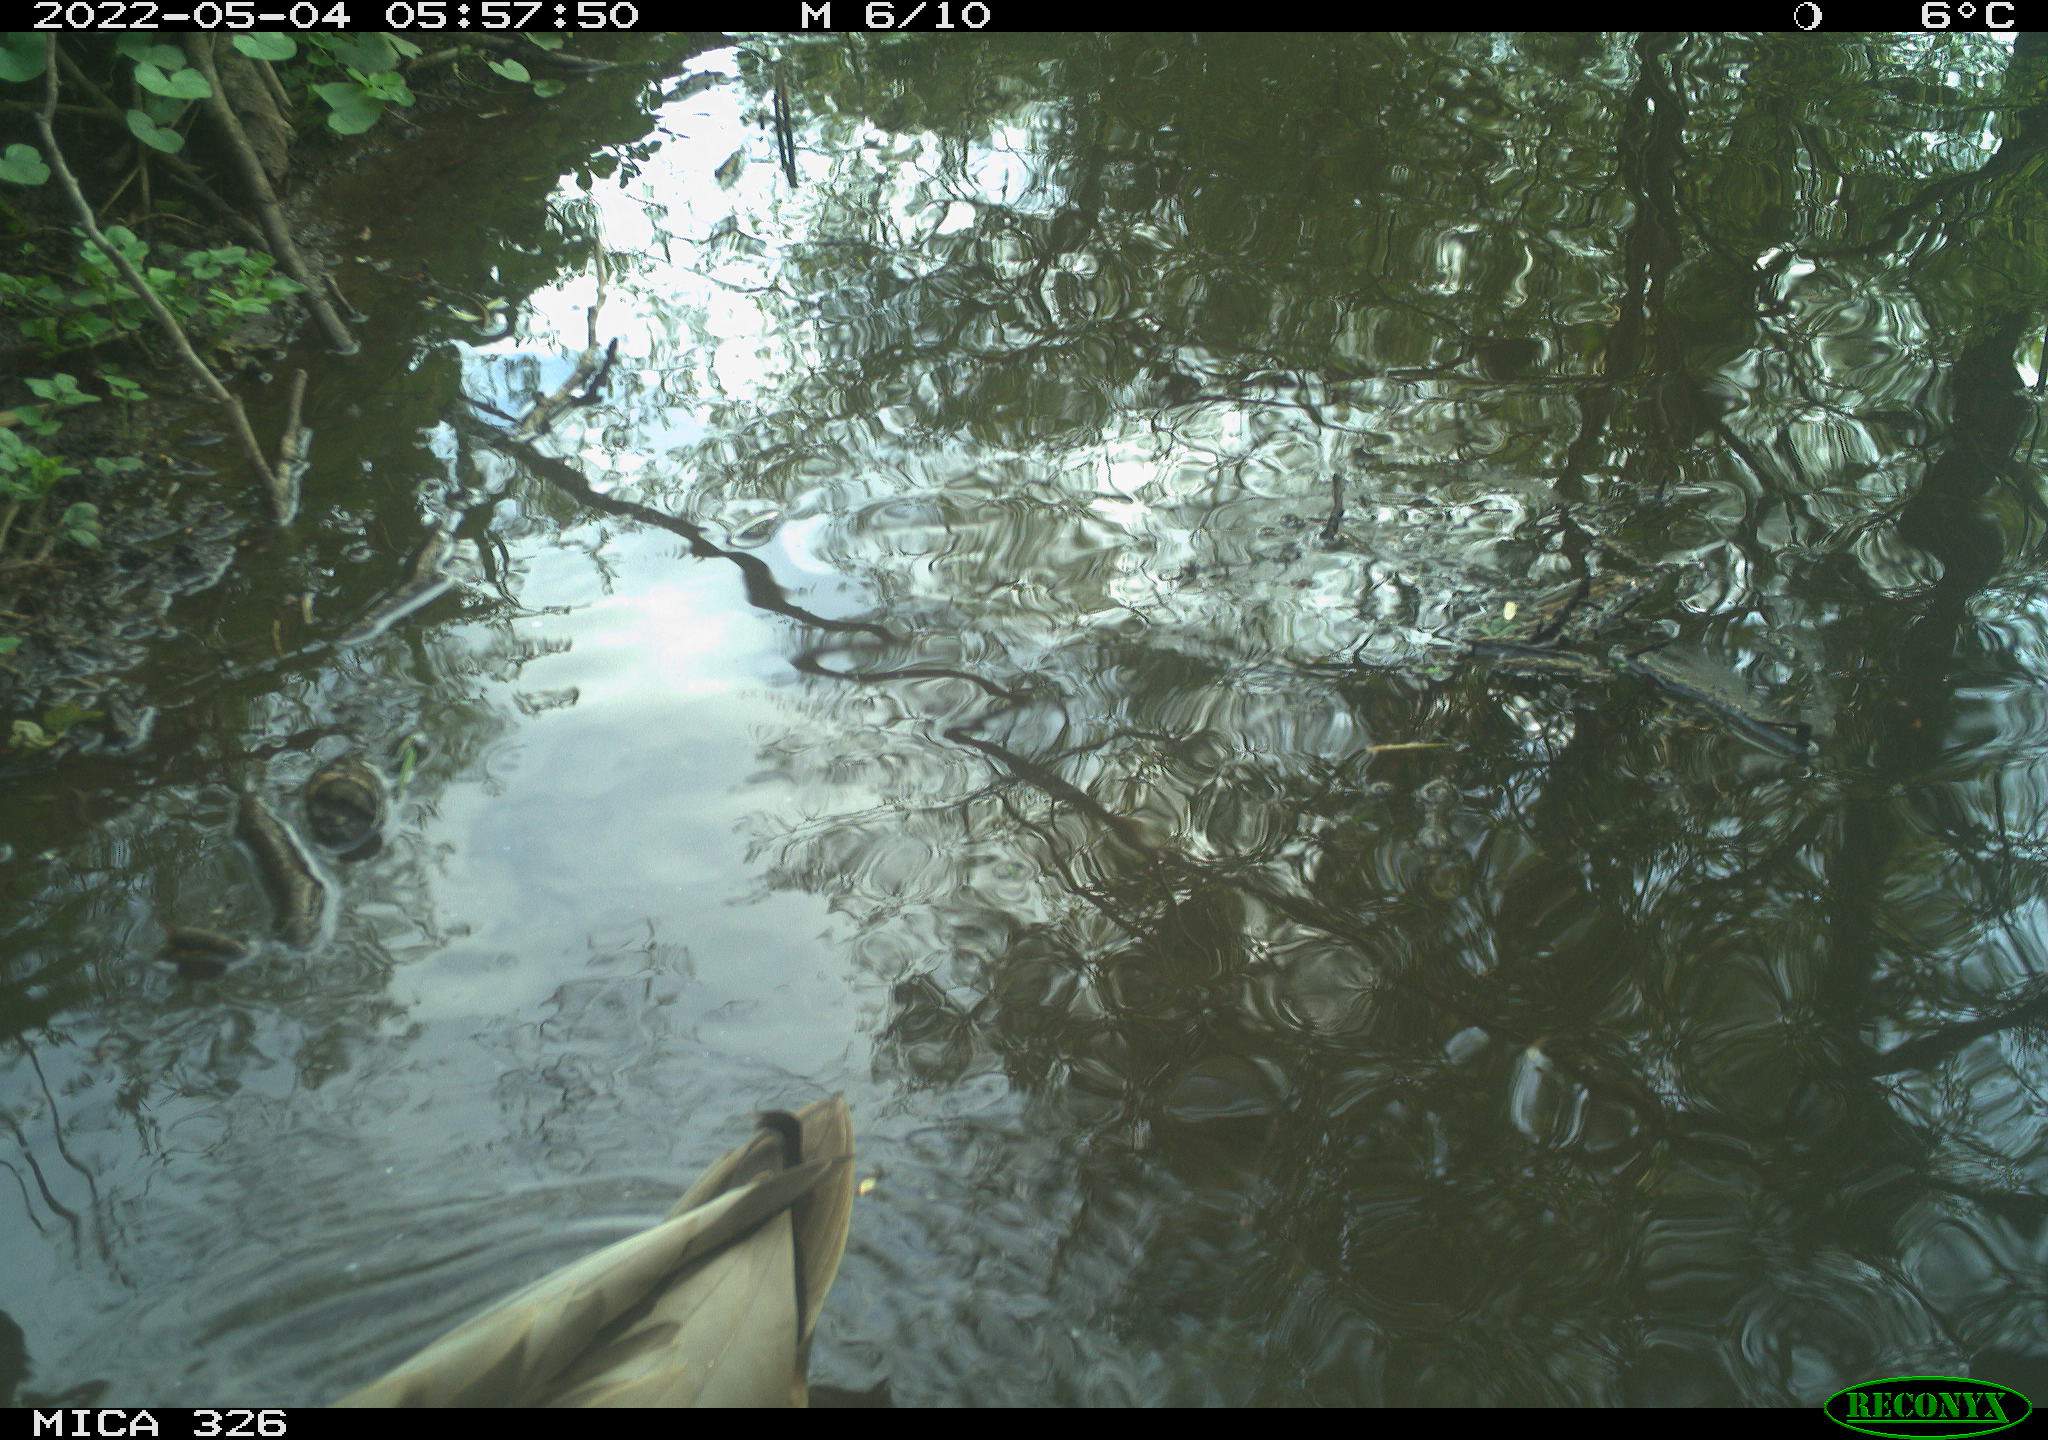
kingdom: Animalia
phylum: Chordata
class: Aves
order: Anseriformes
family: Anatidae
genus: Anas
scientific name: Anas
